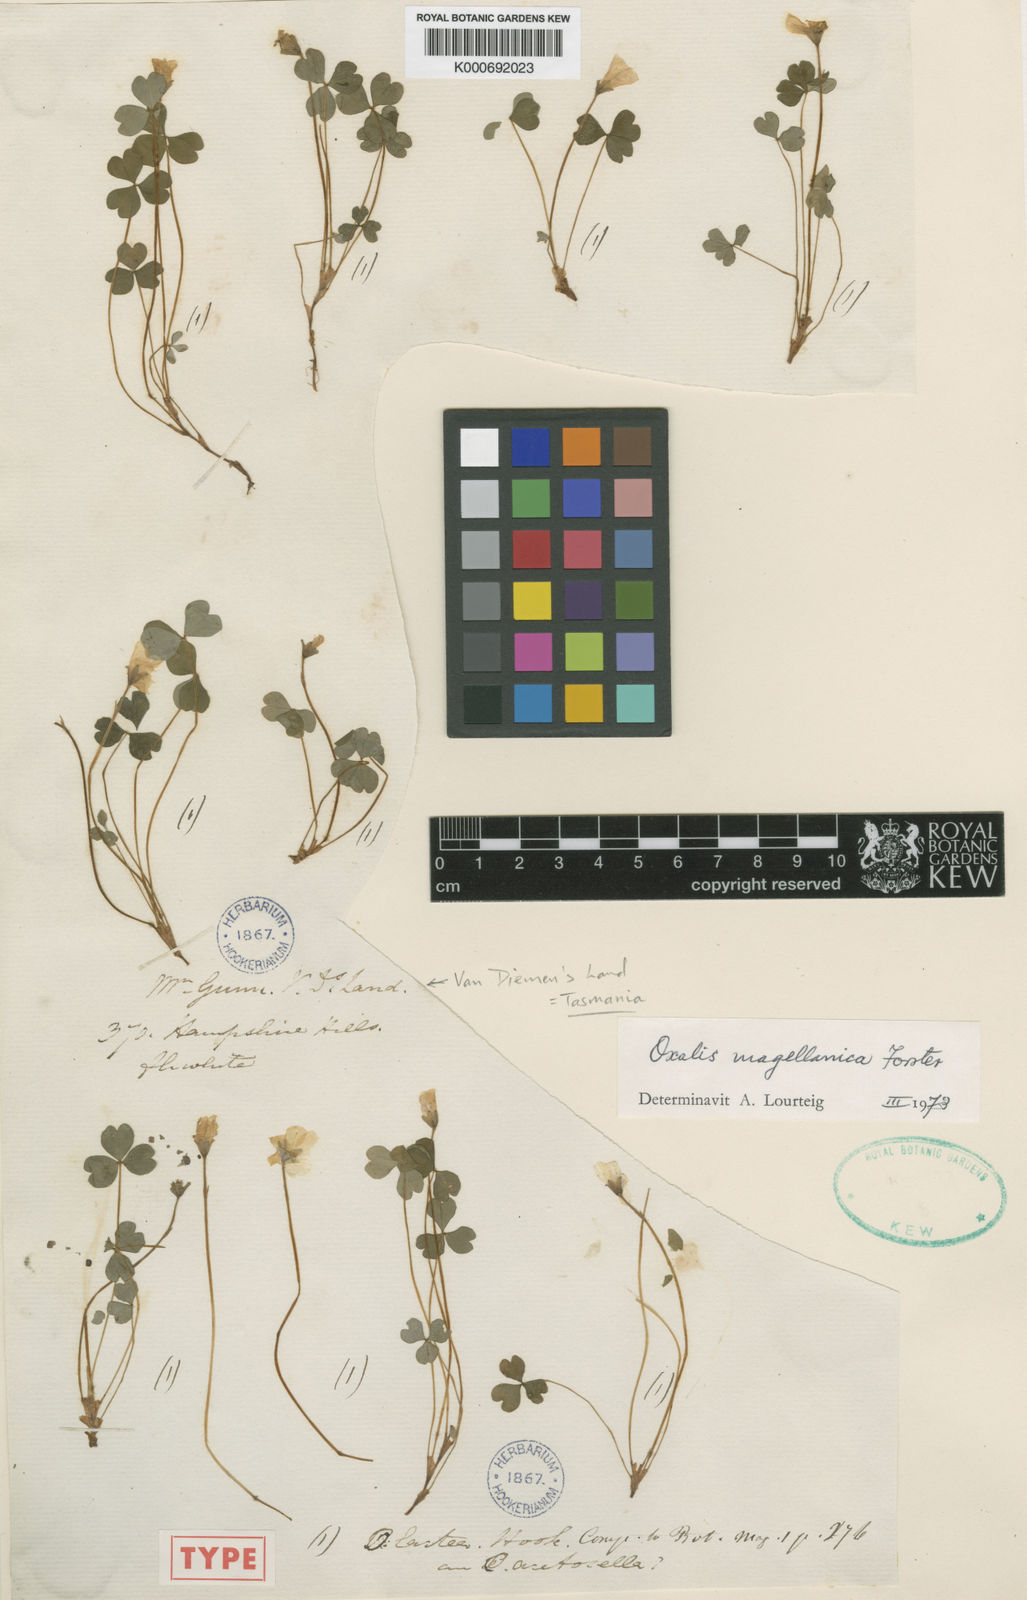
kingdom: Plantae
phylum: Tracheophyta
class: Magnoliopsida
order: Oxalidales
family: Oxalidaceae
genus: Oxalis
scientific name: Oxalis magellanica
